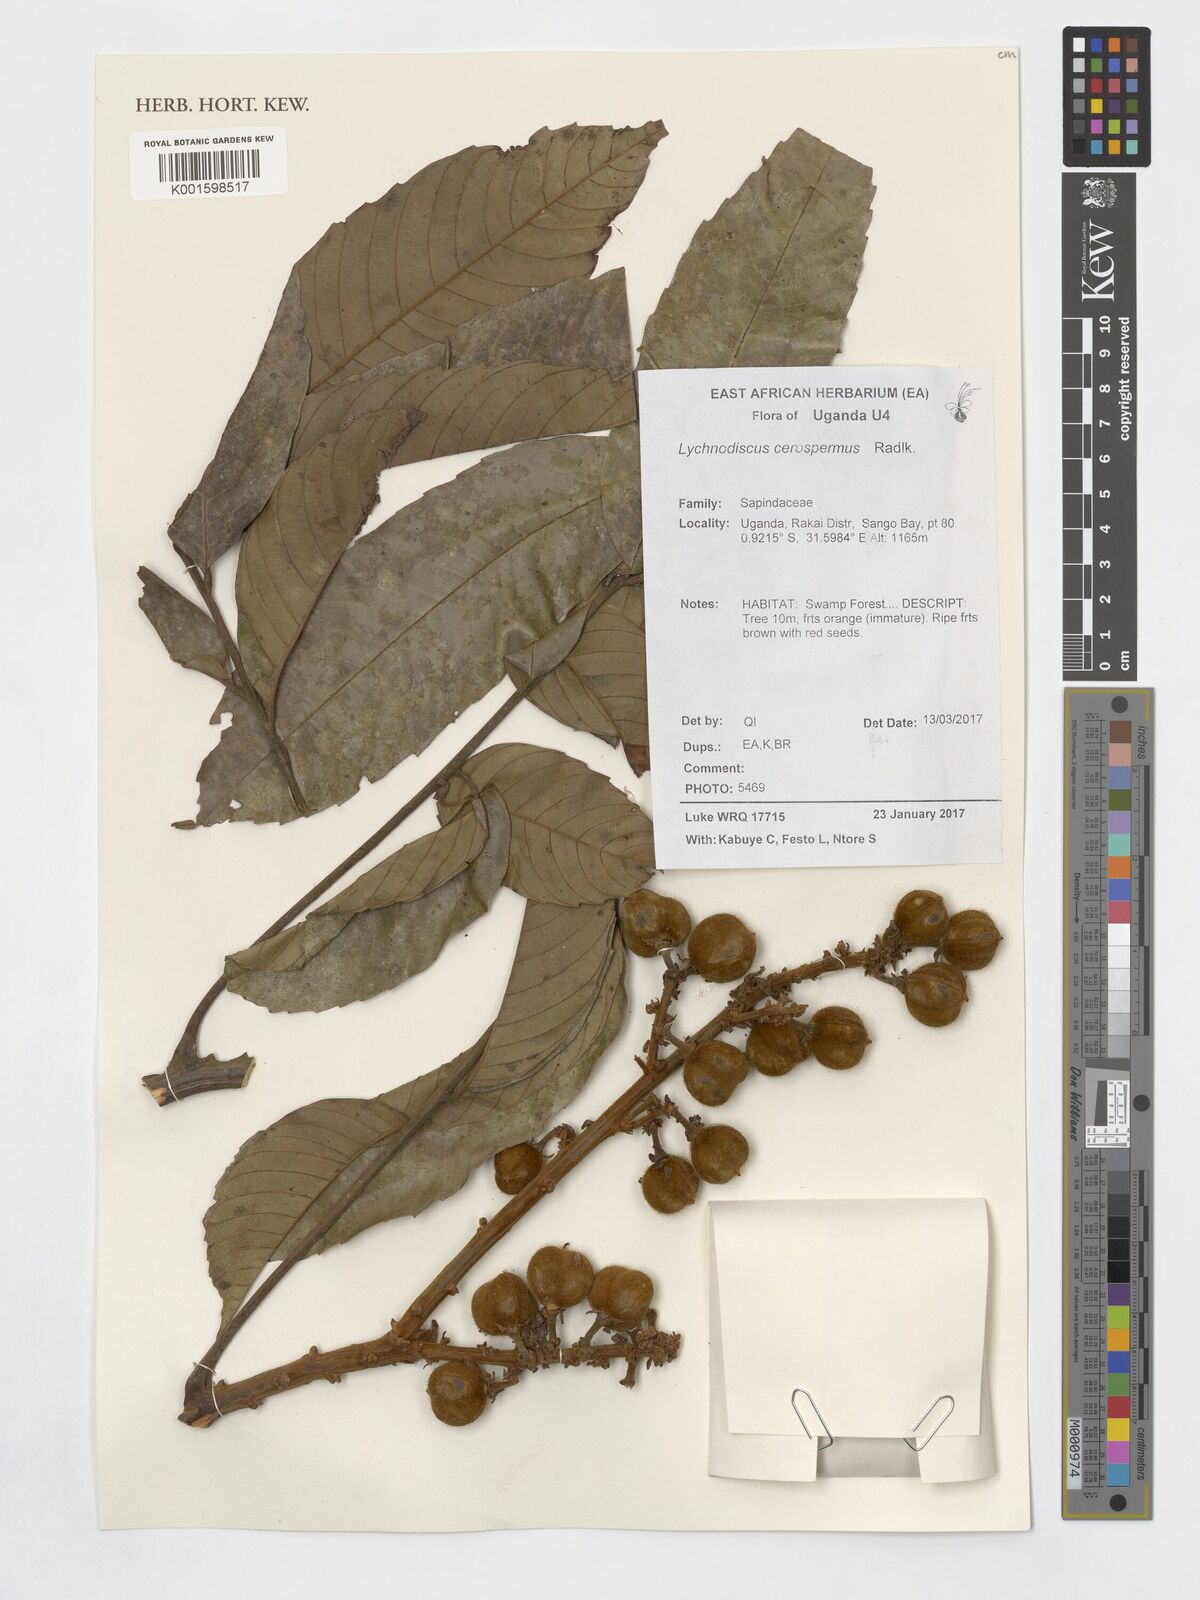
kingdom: Plantae
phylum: Tracheophyta
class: Magnoliopsida
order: Sapindales
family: Sapindaceae
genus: Lychnodiscus
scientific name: Lychnodiscus cerospermus
